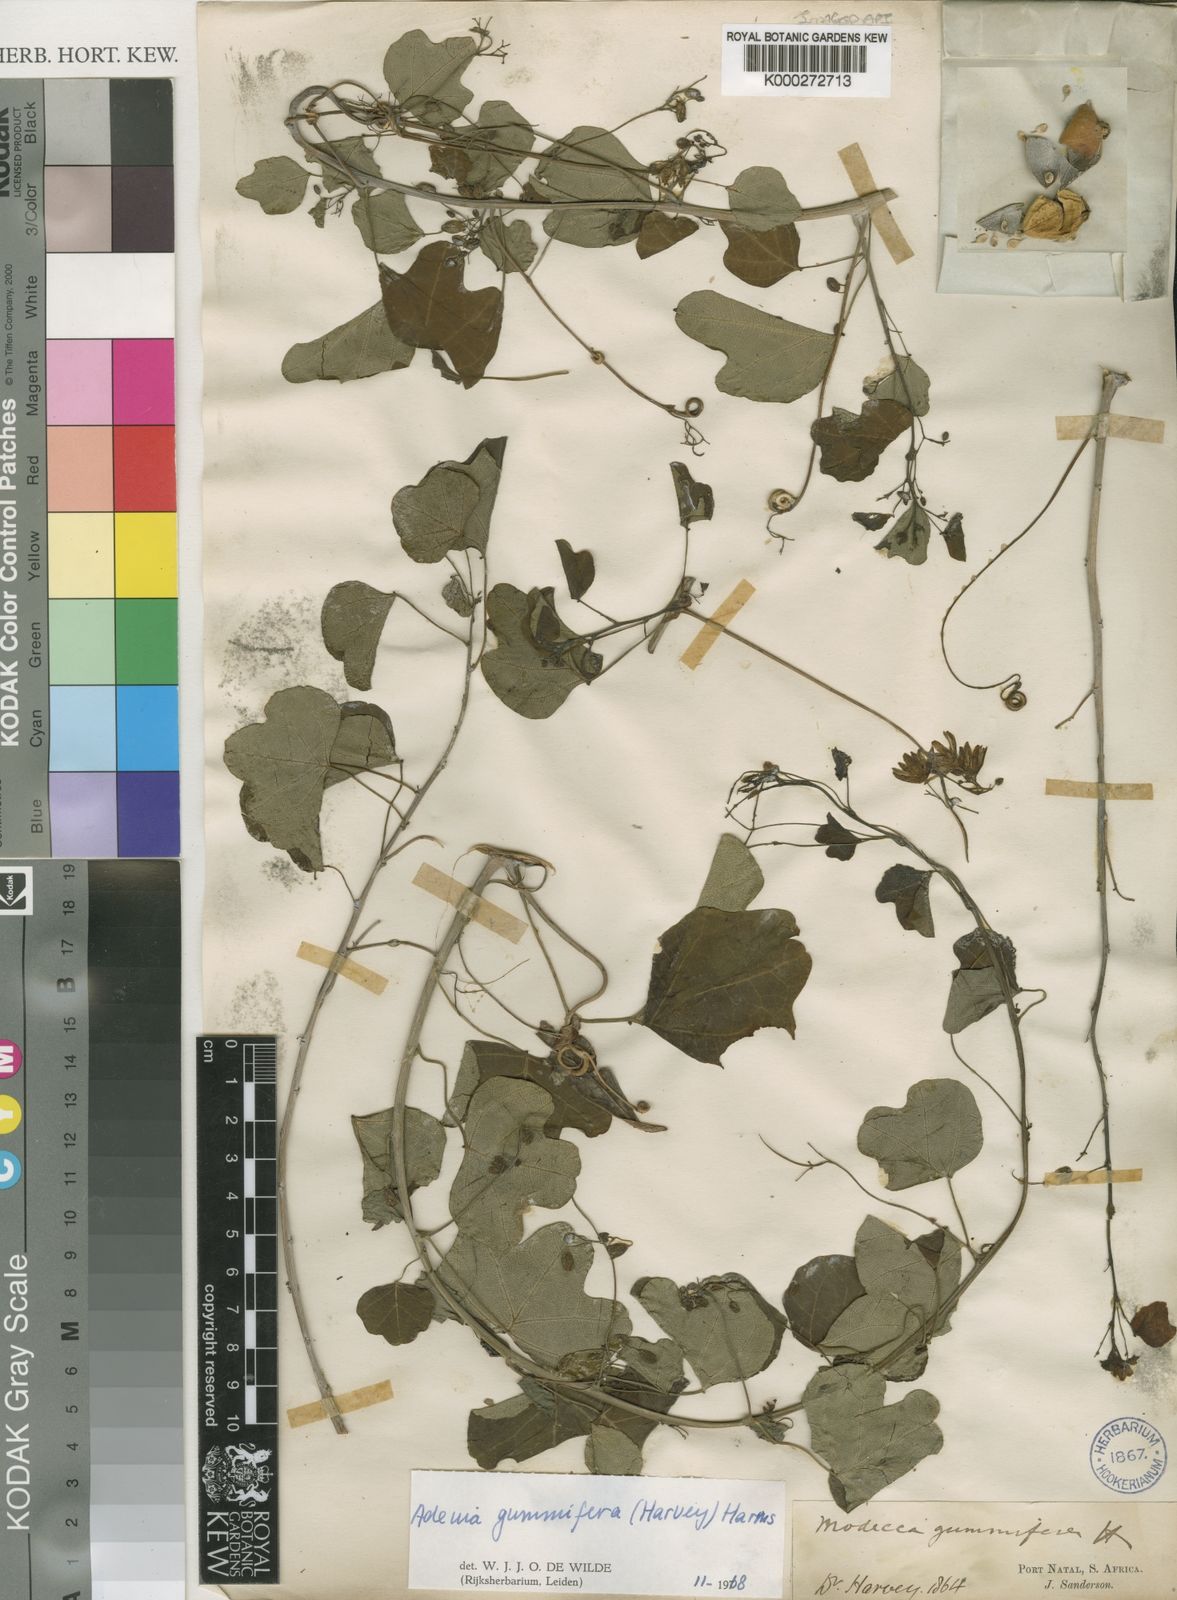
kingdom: Plantae
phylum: Tracheophyta
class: Magnoliopsida
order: Malpighiales
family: Passifloraceae
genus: Adenia
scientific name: Adenia cissampeloides
